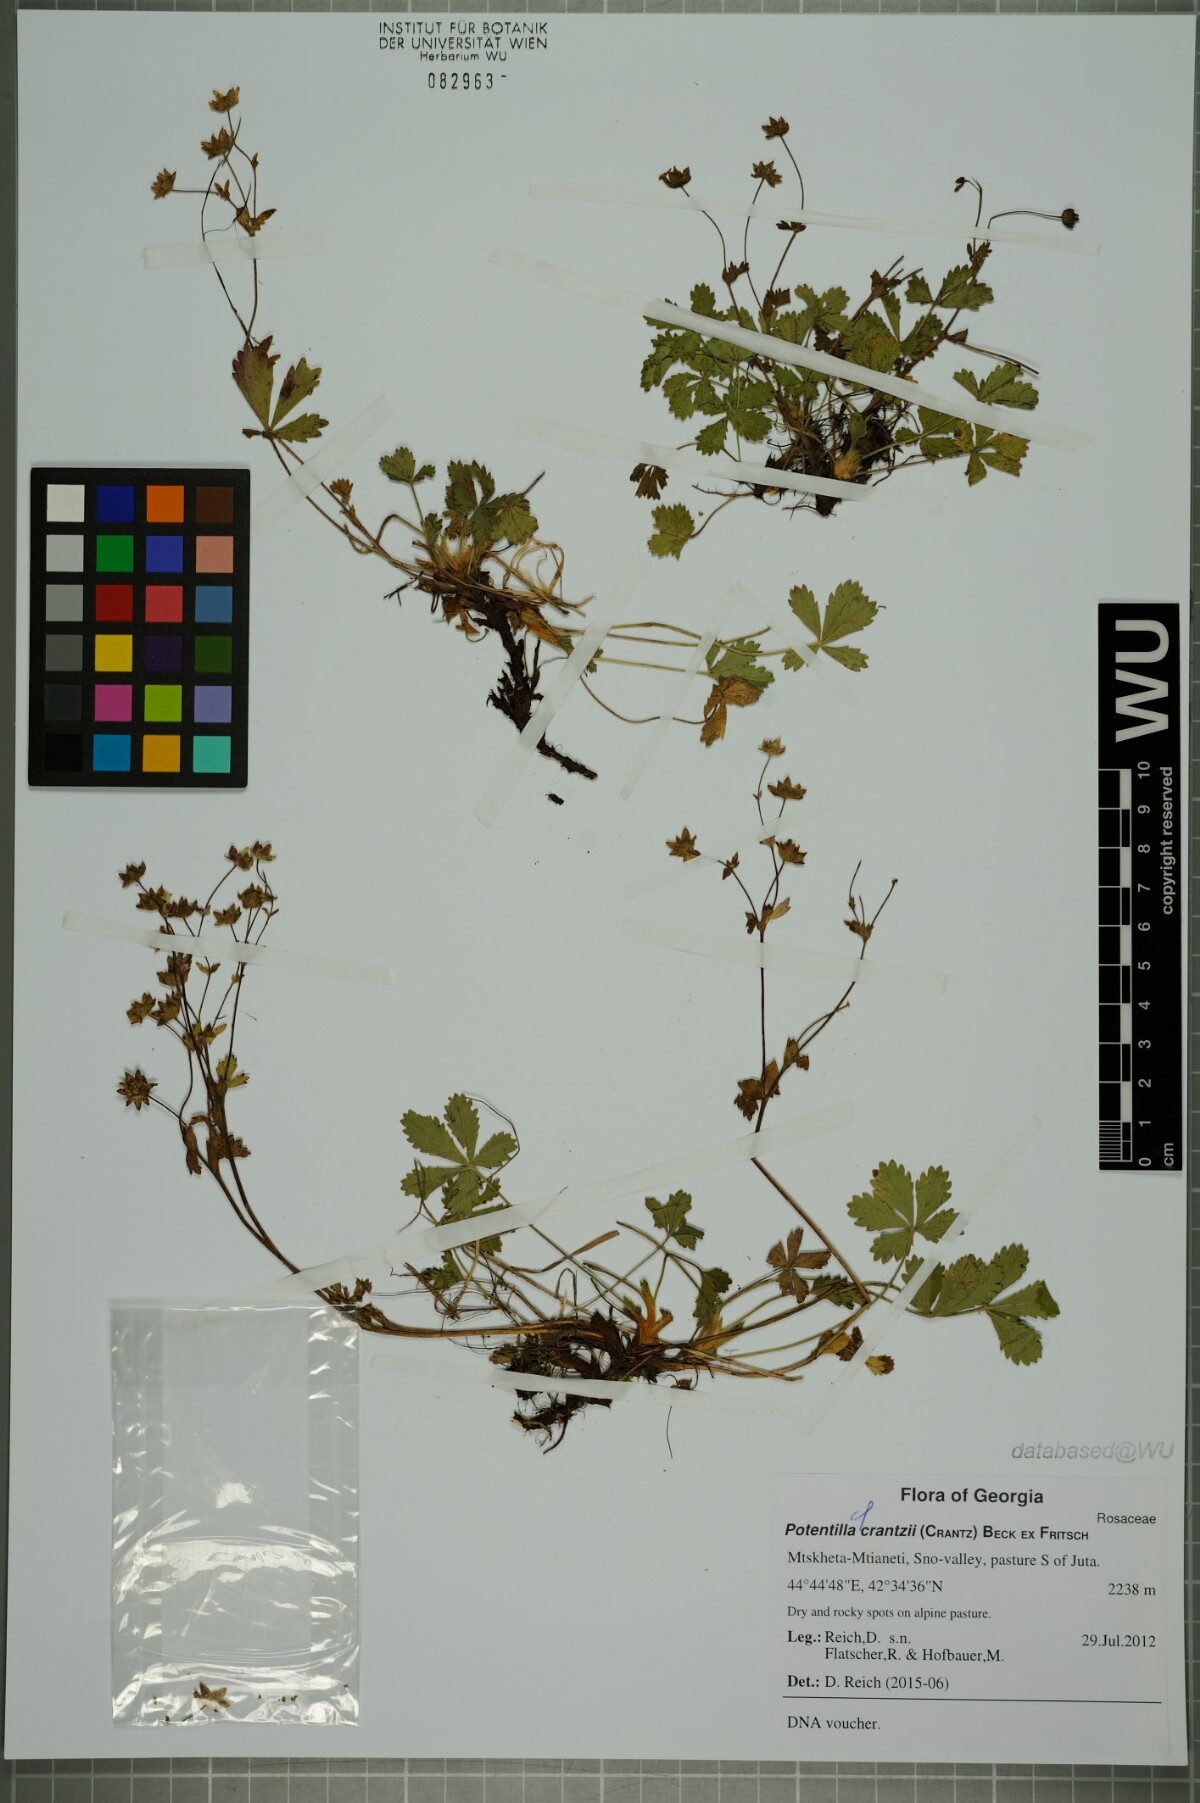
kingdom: Plantae
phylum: Tracheophyta
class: Magnoliopsida
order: Rosales
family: Rosaceae
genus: Potentilla
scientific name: Potentilla crantzii
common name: Alpine cinquefoil
